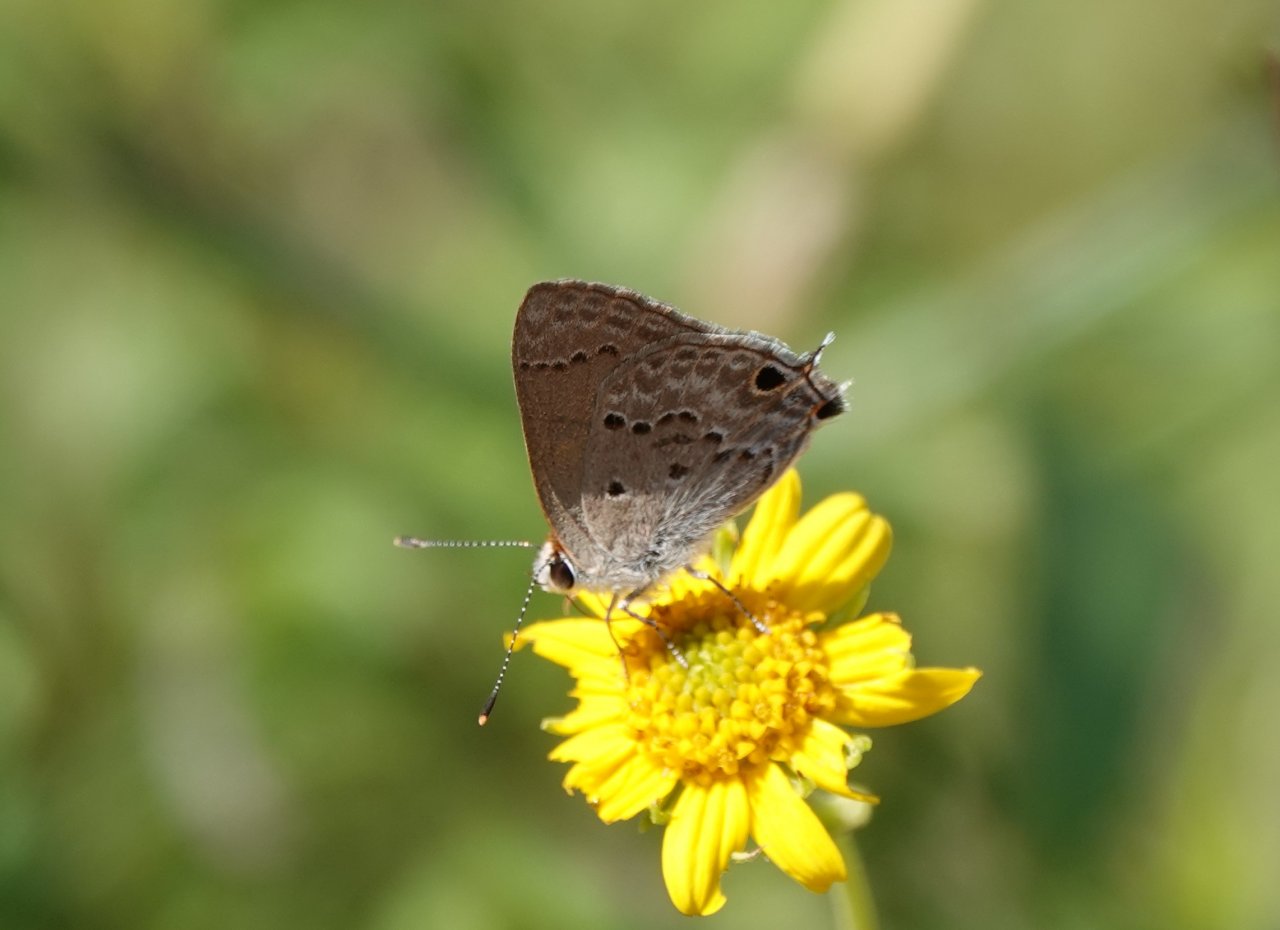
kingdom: Animalia
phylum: Arthropoda
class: Insecta
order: Lepidoptera
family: Lycaenidae
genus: Callicista
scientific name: Callicista columella
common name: Mallow Scrub-Hairstreak
